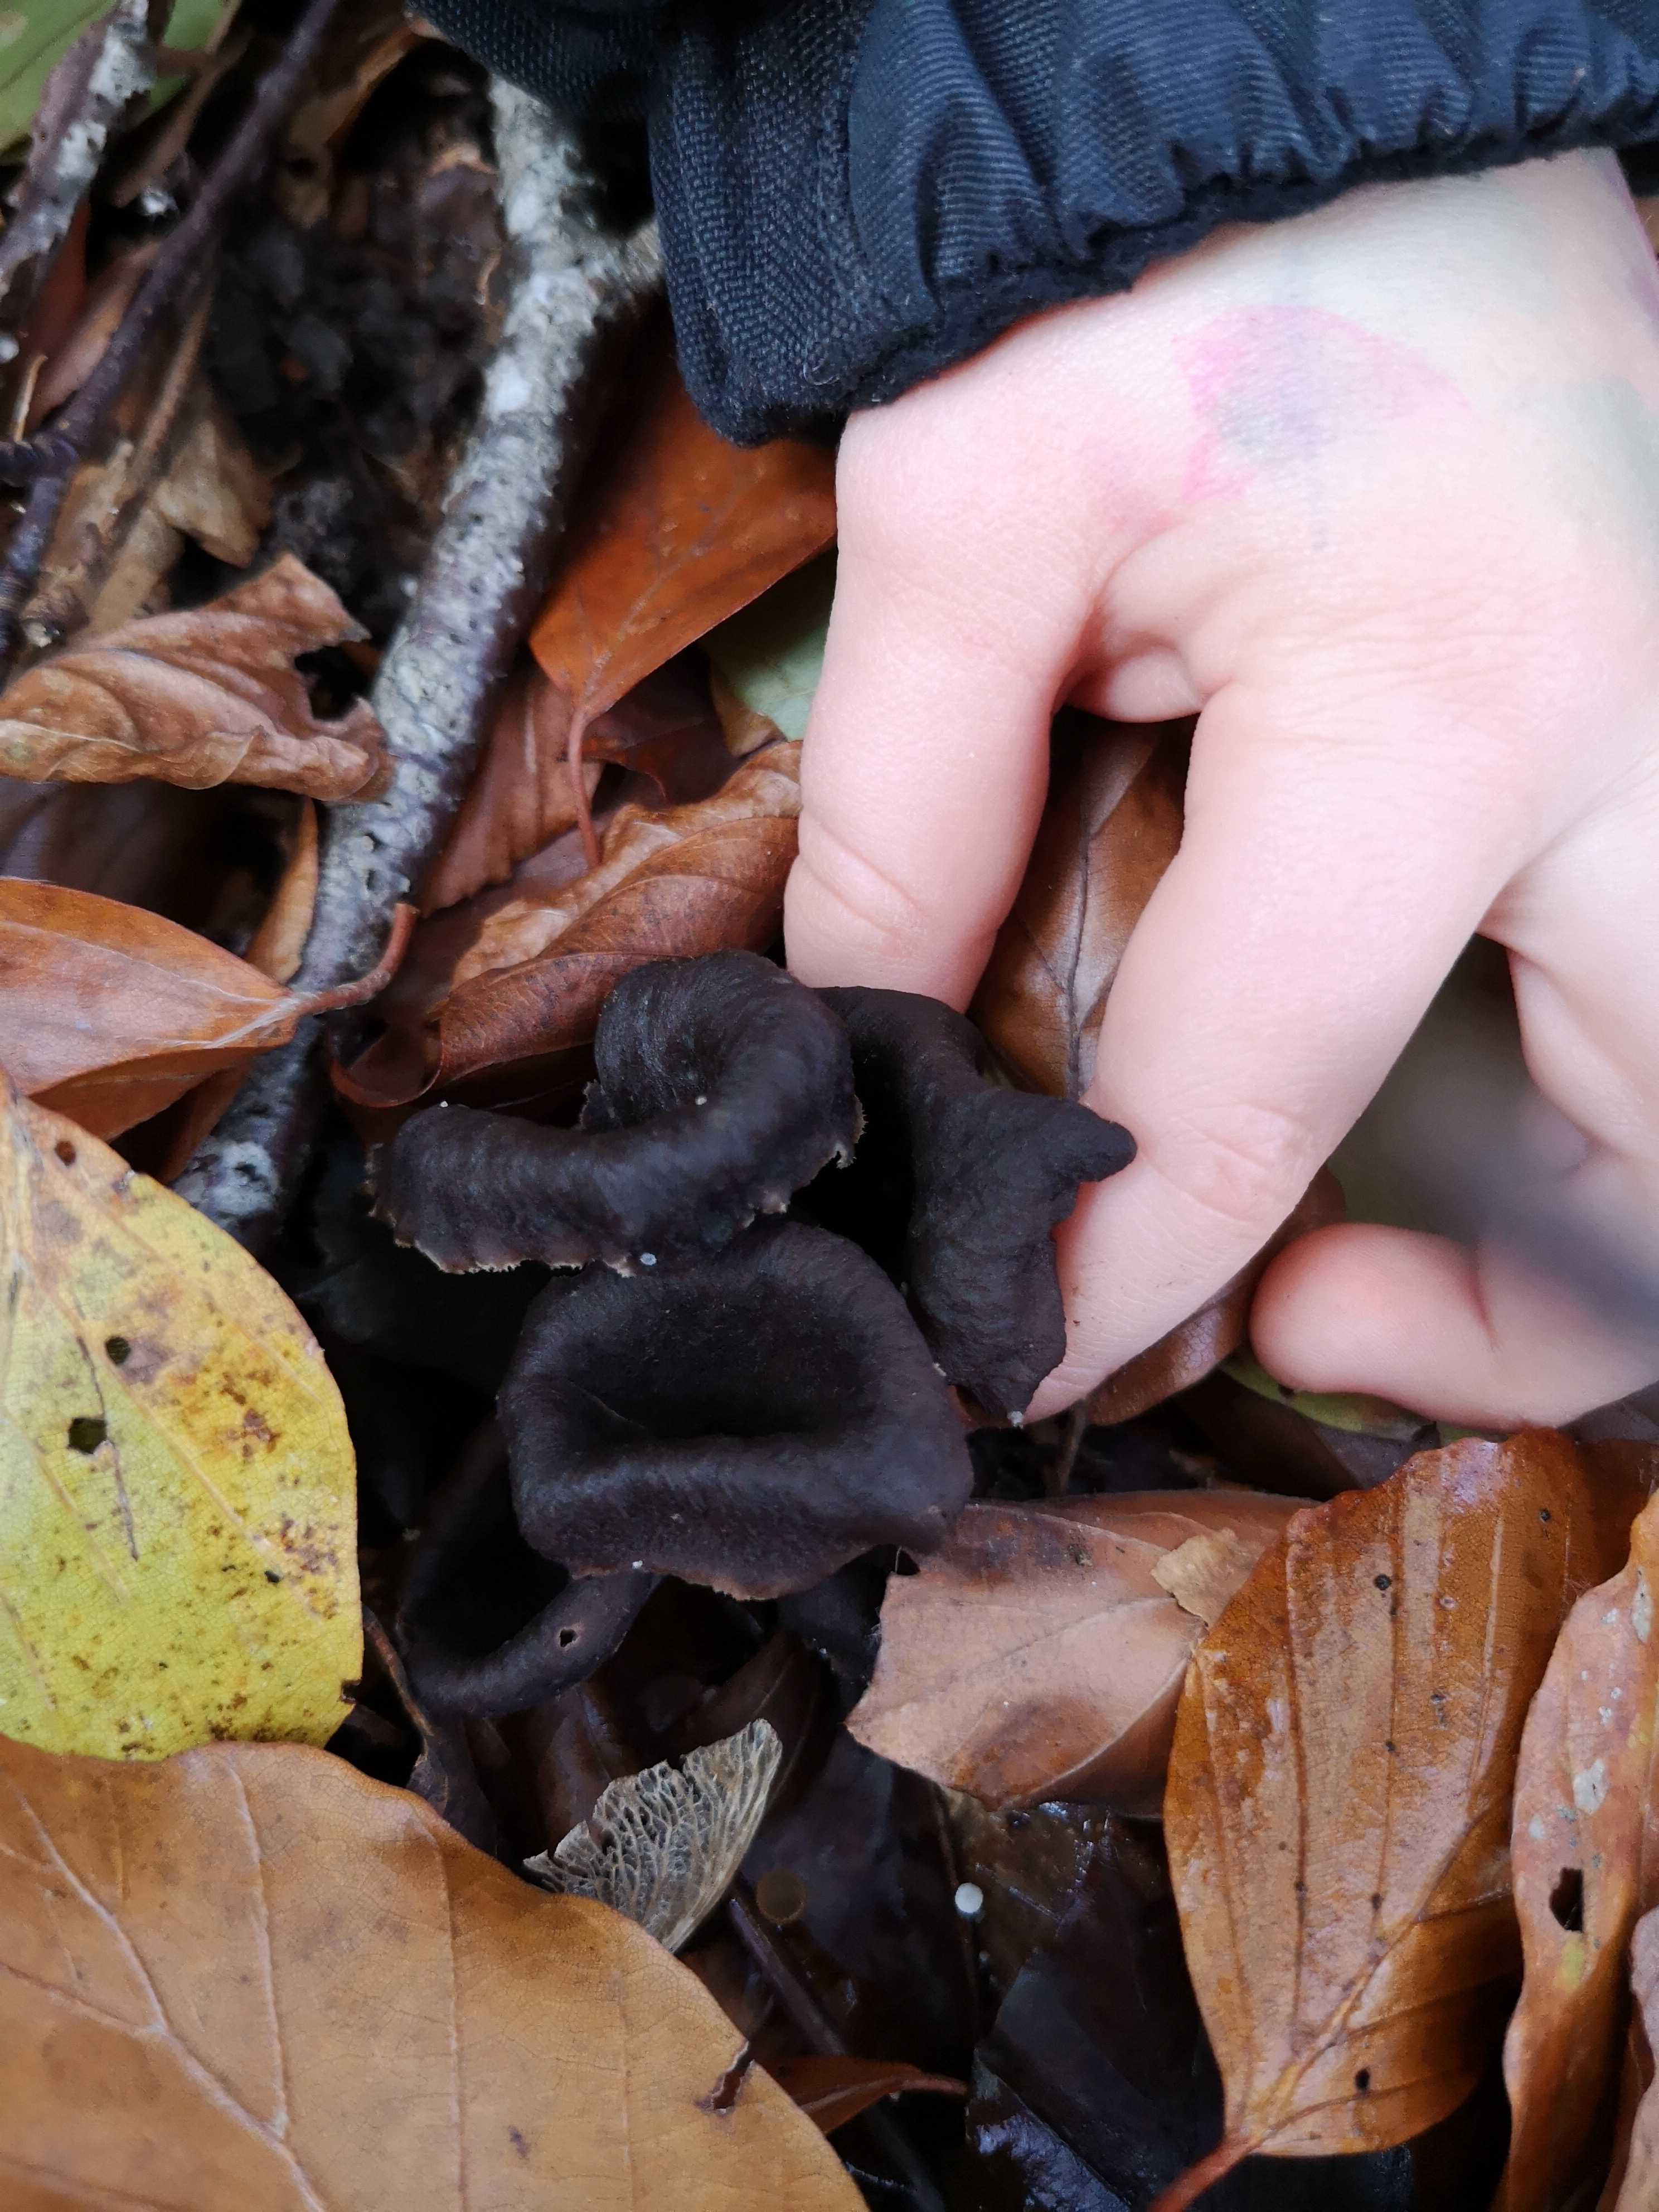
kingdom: Fungi
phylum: Basidiomycota
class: Agaricomycetes
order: Cantharellales
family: Hydnaceae
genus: Craterellus
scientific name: Craterellus cornucopioides
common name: trompetsvamp
